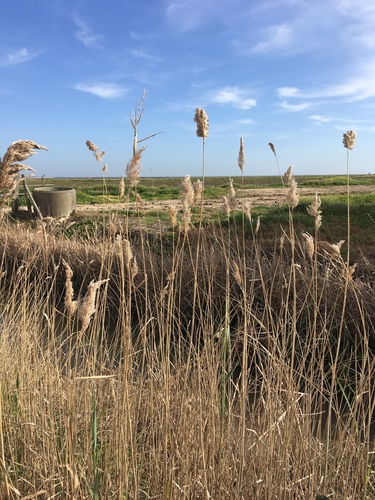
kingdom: Plantae
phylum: Tracheophyta
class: Liliopsida
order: Poales
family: Poaceae
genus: Phragmites
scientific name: Phragmites australis
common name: Common reed
